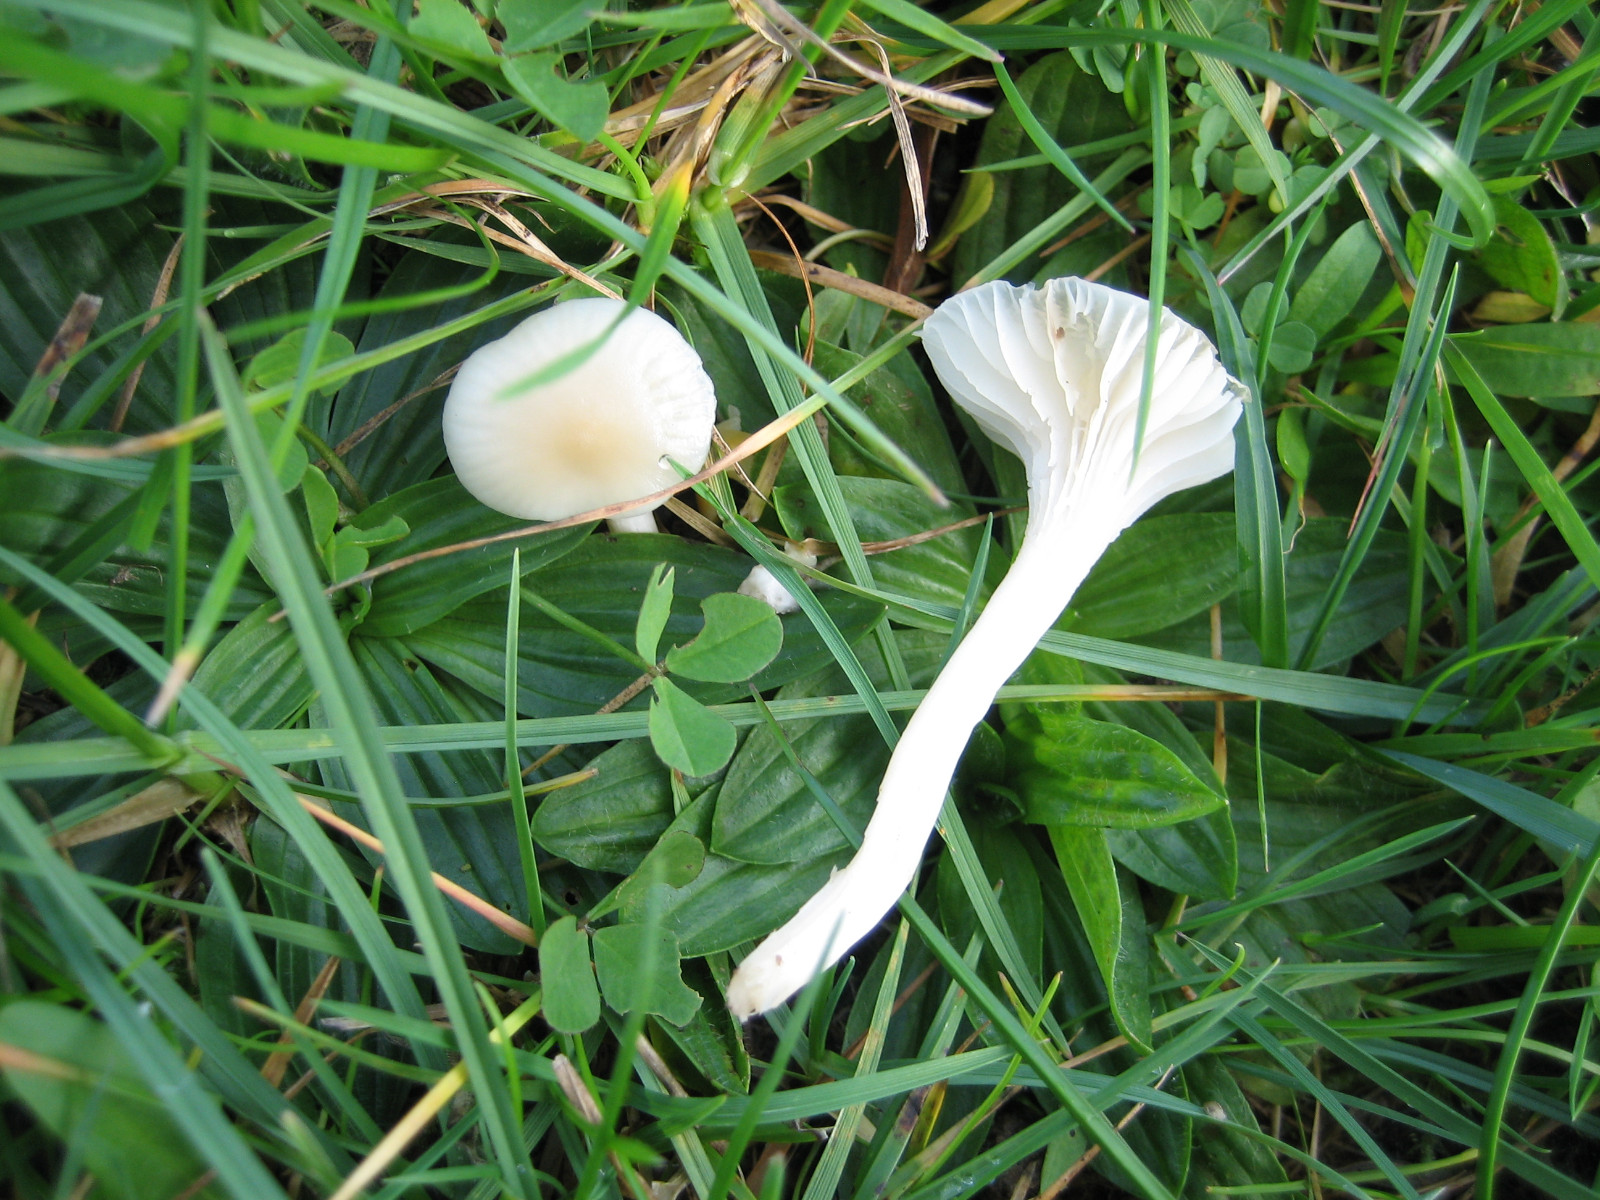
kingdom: Fungi
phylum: Basidiomycota
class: Agaricomycetes
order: Agaricales
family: Hygrophoraceae
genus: Cuphophyllus
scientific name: Cuphophyllus russocoriaceus
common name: ruslæder-vokshat
